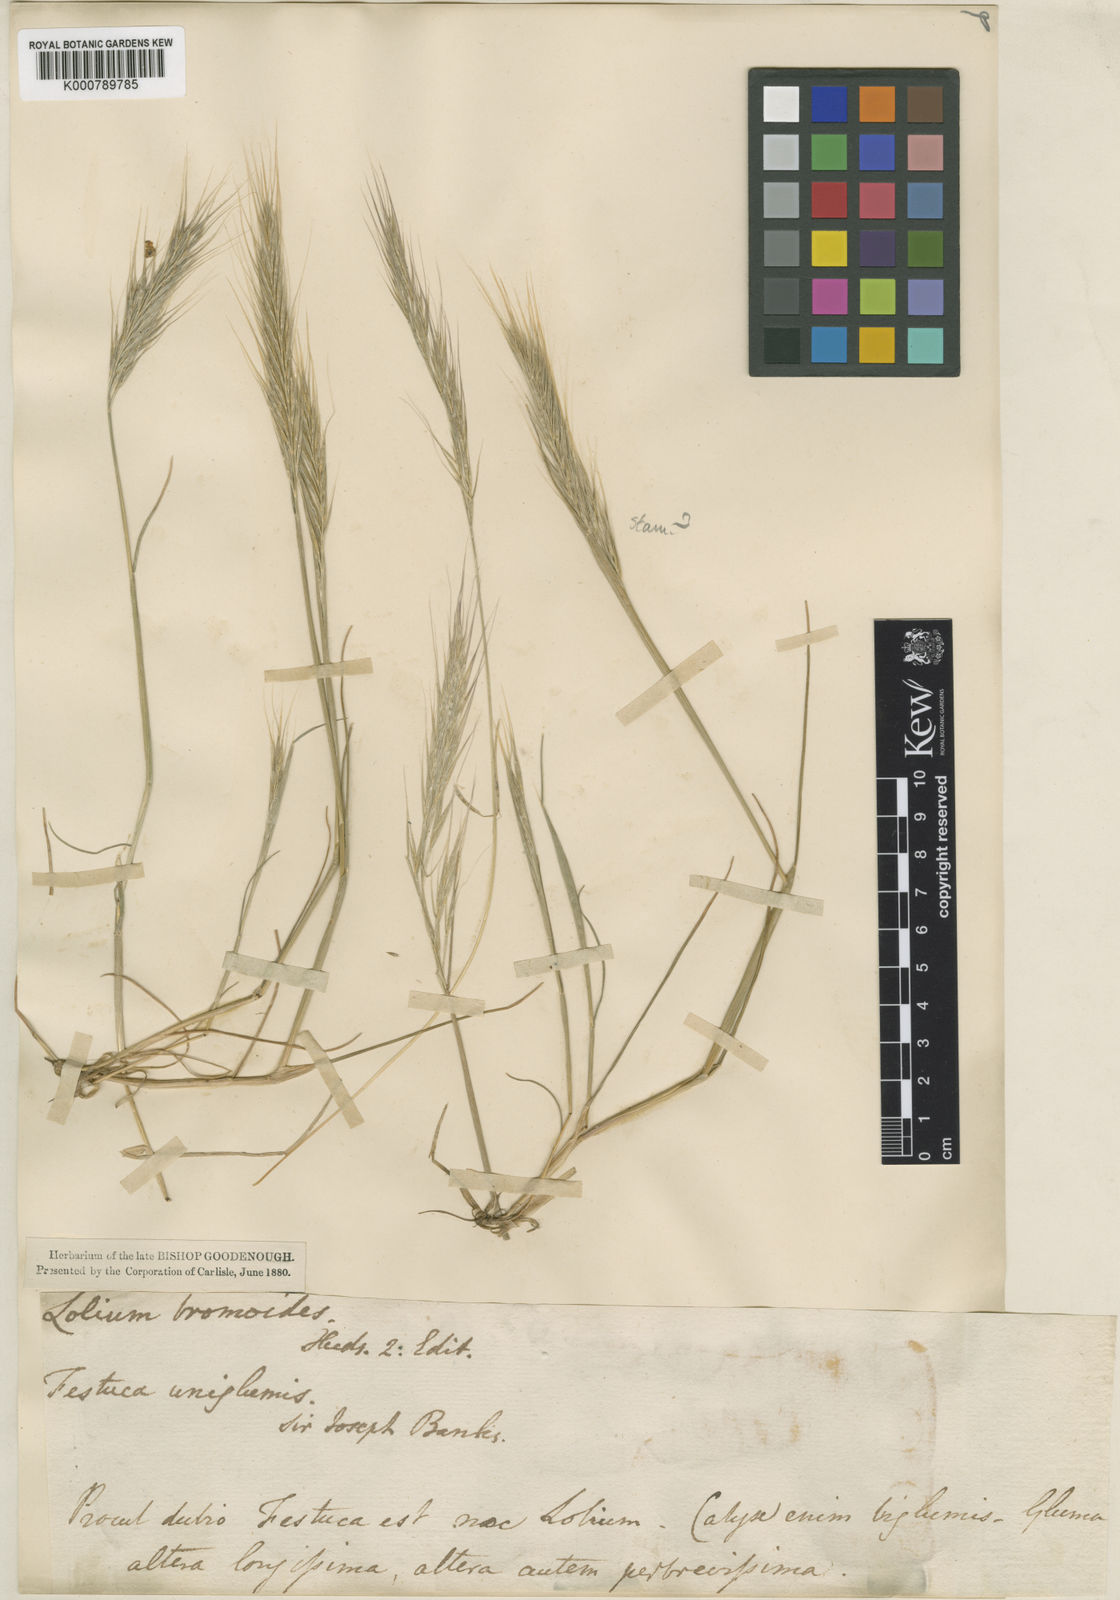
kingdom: Plantae
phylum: Tracheophyta
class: Liliopsida
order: Poales
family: Poaceae
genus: Festuca
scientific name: Festuca fasciculata
